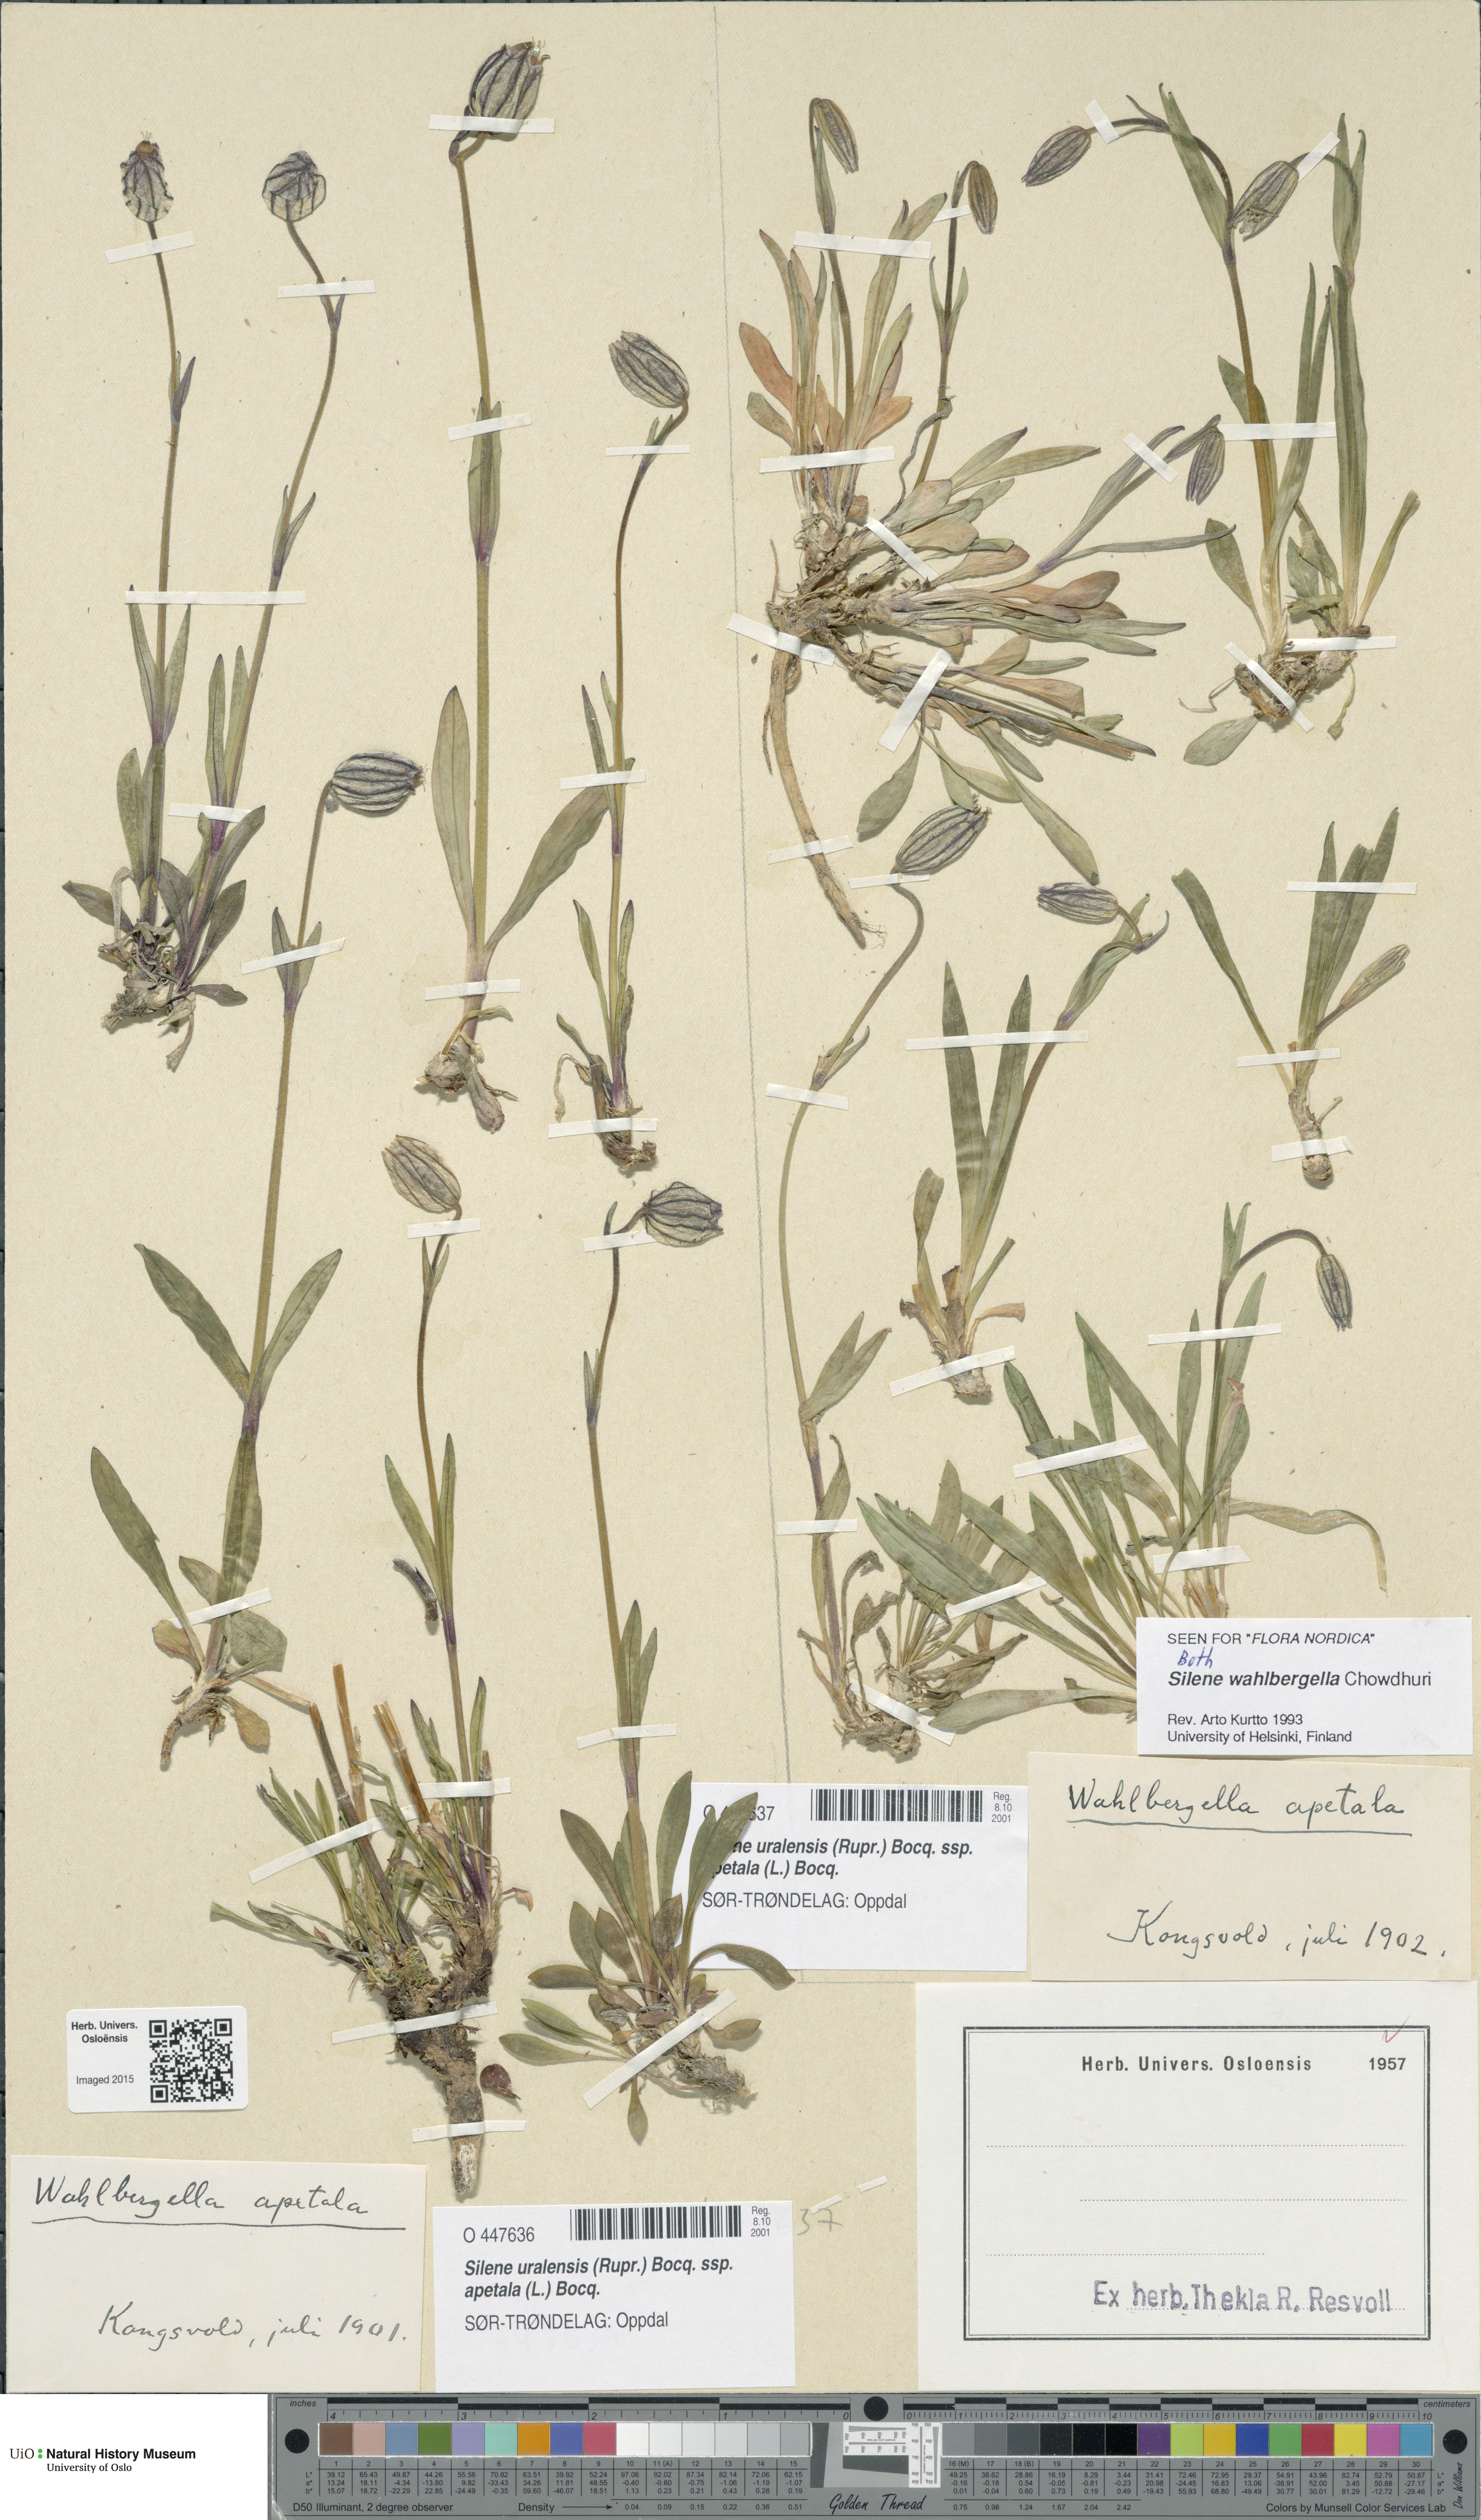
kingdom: Plantae
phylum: Tracheophyta
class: Magnoliopsida
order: Caryophyllales
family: Caryophyllaceae
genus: Silene
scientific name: Silene wahlbergella
